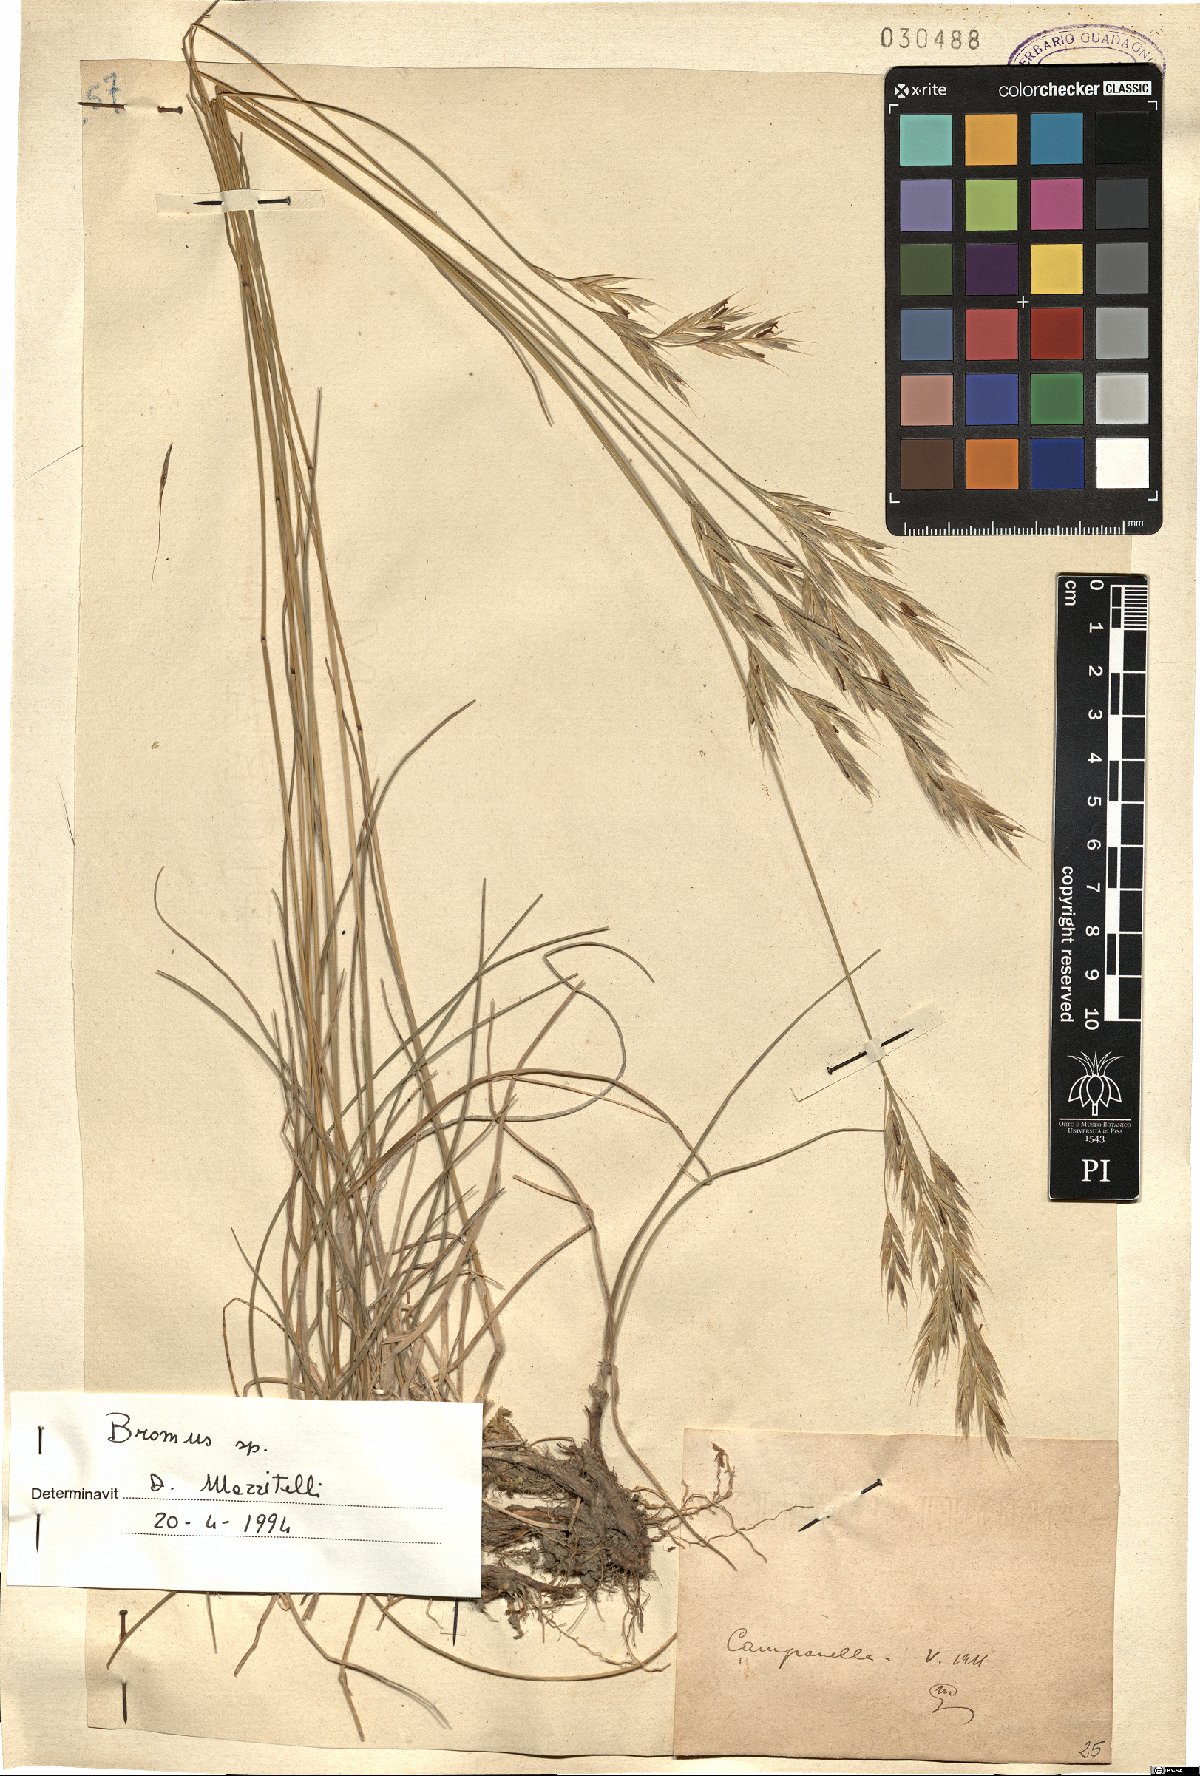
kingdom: Plantae
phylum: Tracheophyta
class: Liliopsida
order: Poales
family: Poaceae
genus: Bromus
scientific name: Bromus
